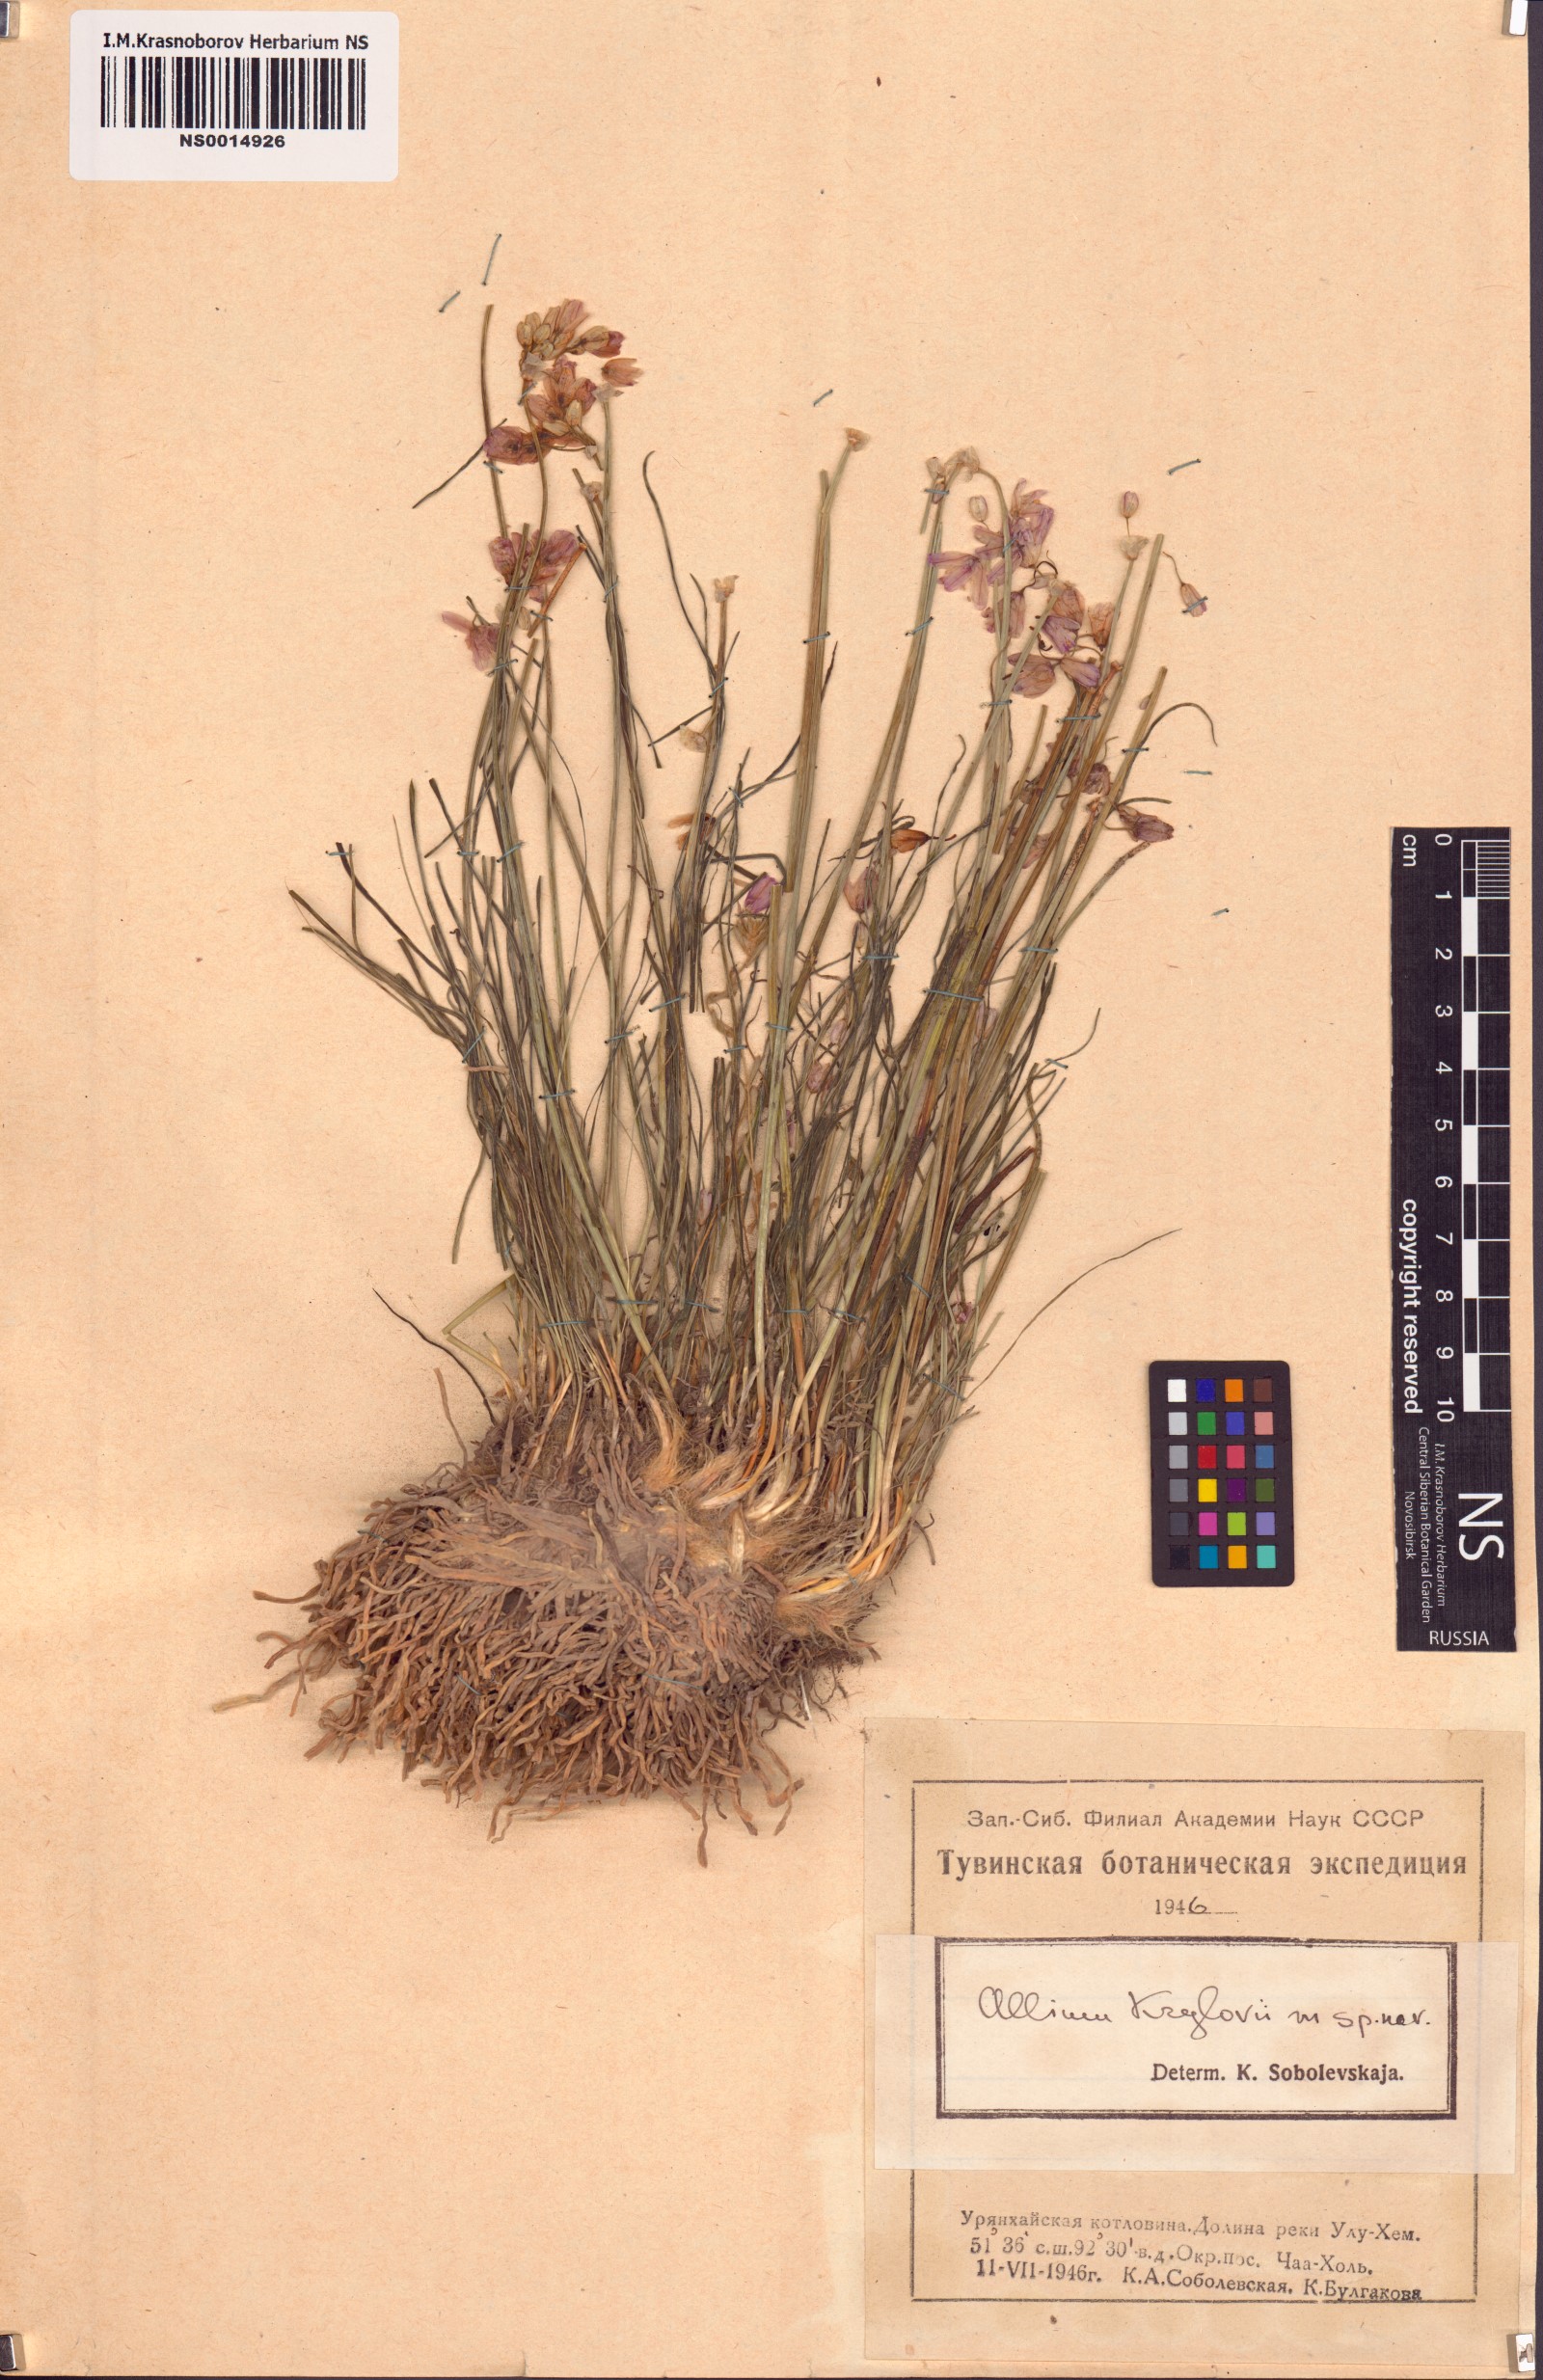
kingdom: Plantae
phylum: Tracheophyta
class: Liliopsida
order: Asparagales
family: Amaryllidaceae
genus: Allium
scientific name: Allium mongolicum
